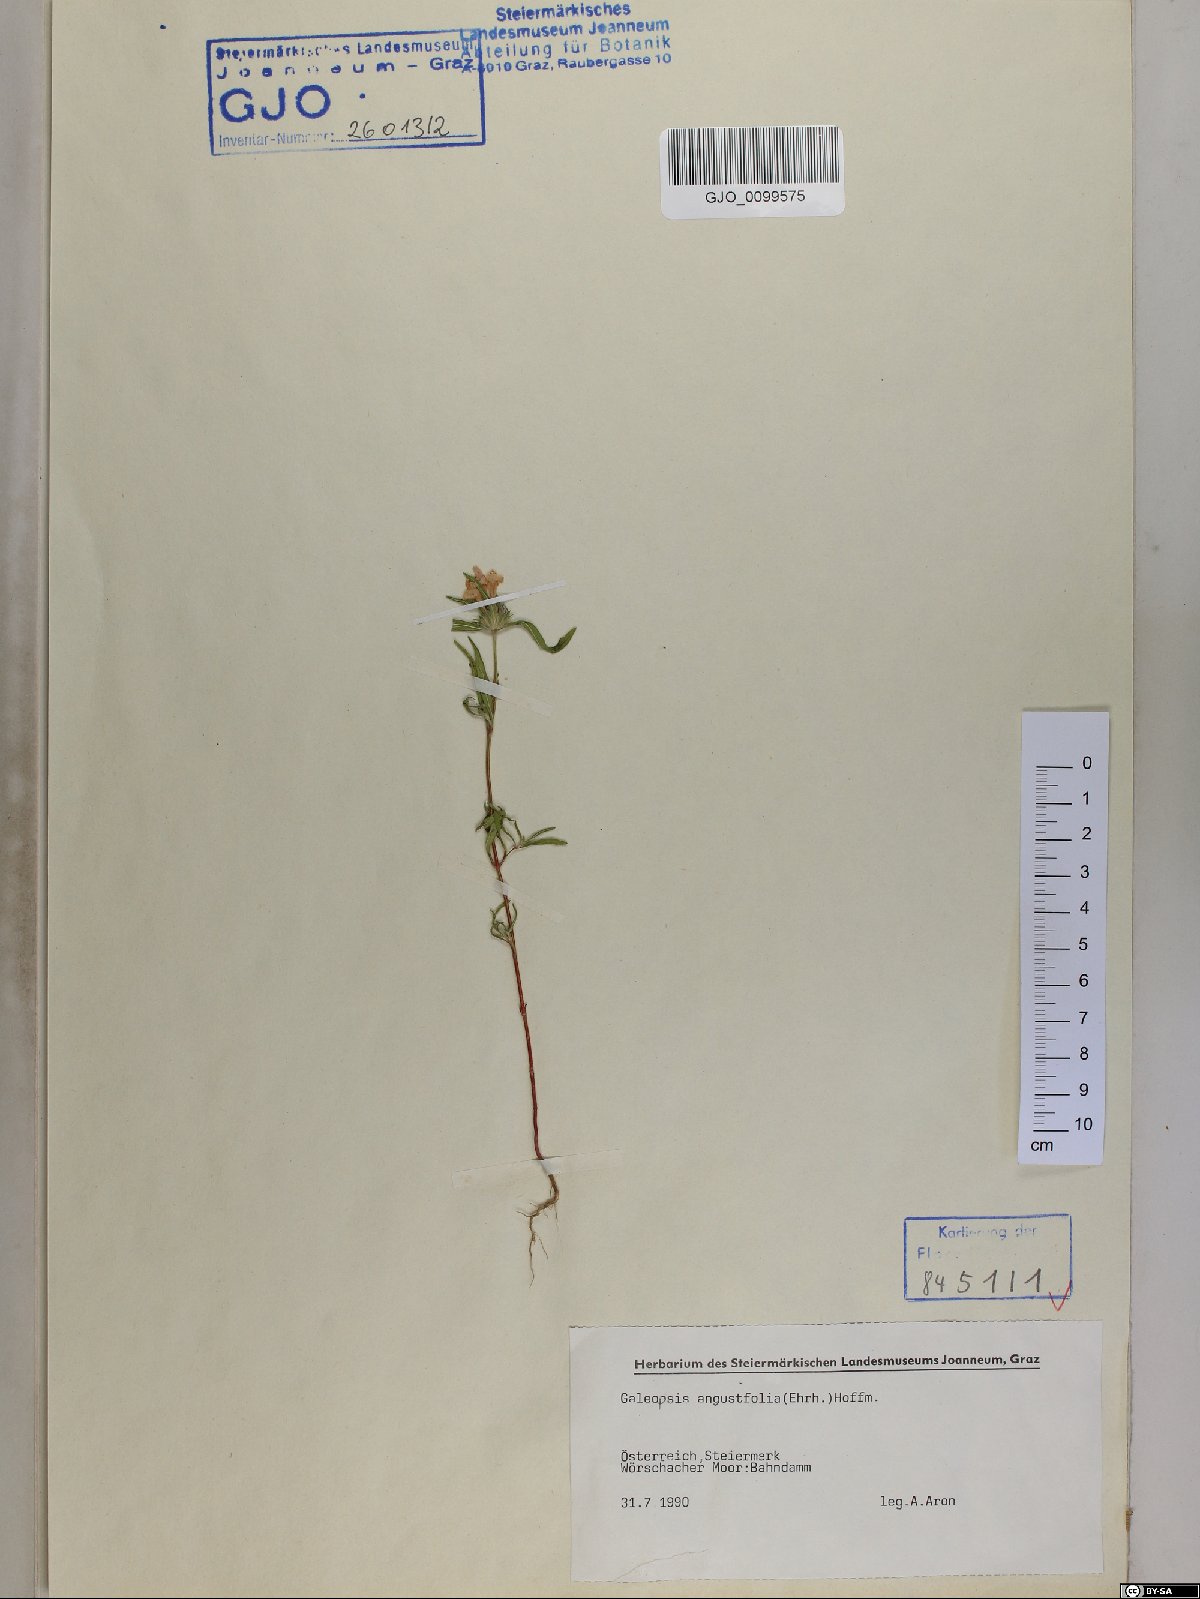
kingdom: Plantae
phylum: Tracheophyta
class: Magnoliopsida
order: Lamiales
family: Lamiaceae
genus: Galeopsis
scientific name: Galeopsis angustifolia
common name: Red hemp-nettle
